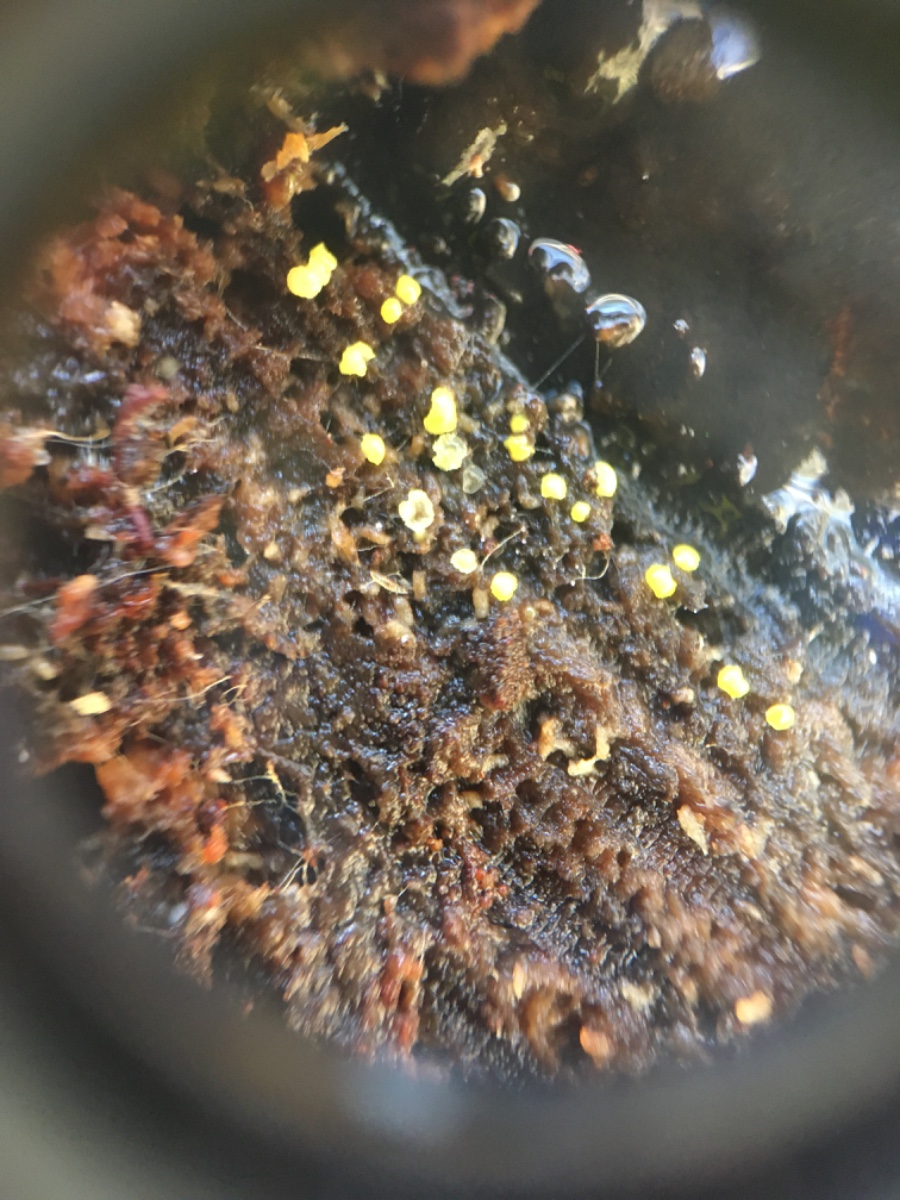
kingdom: Fungi
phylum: Ascomycota
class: Leotiomycetes
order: Helotiales
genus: Lemalis
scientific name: Lemalis aurea
